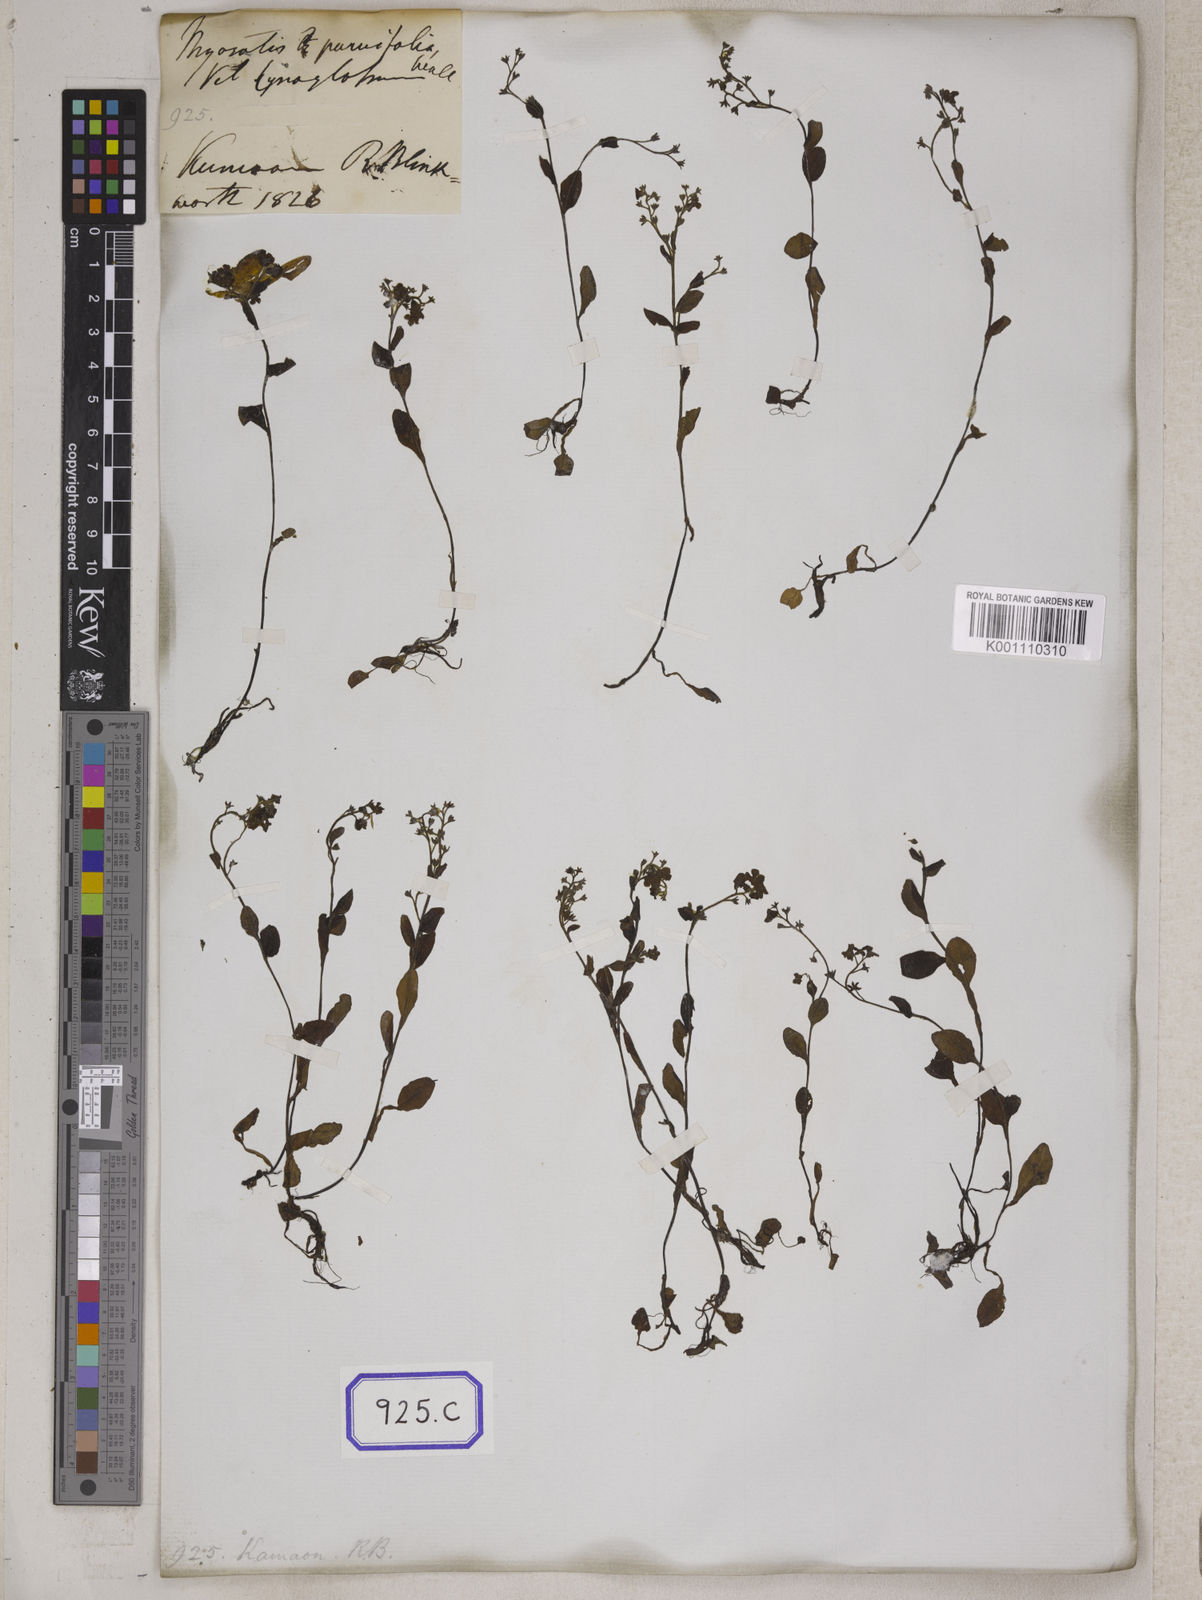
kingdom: Plantae
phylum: Tracheophyta
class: Magnoliopsida
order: Boraginales
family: Boraginaceae
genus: Cynoglossum
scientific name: Cynoglossum
